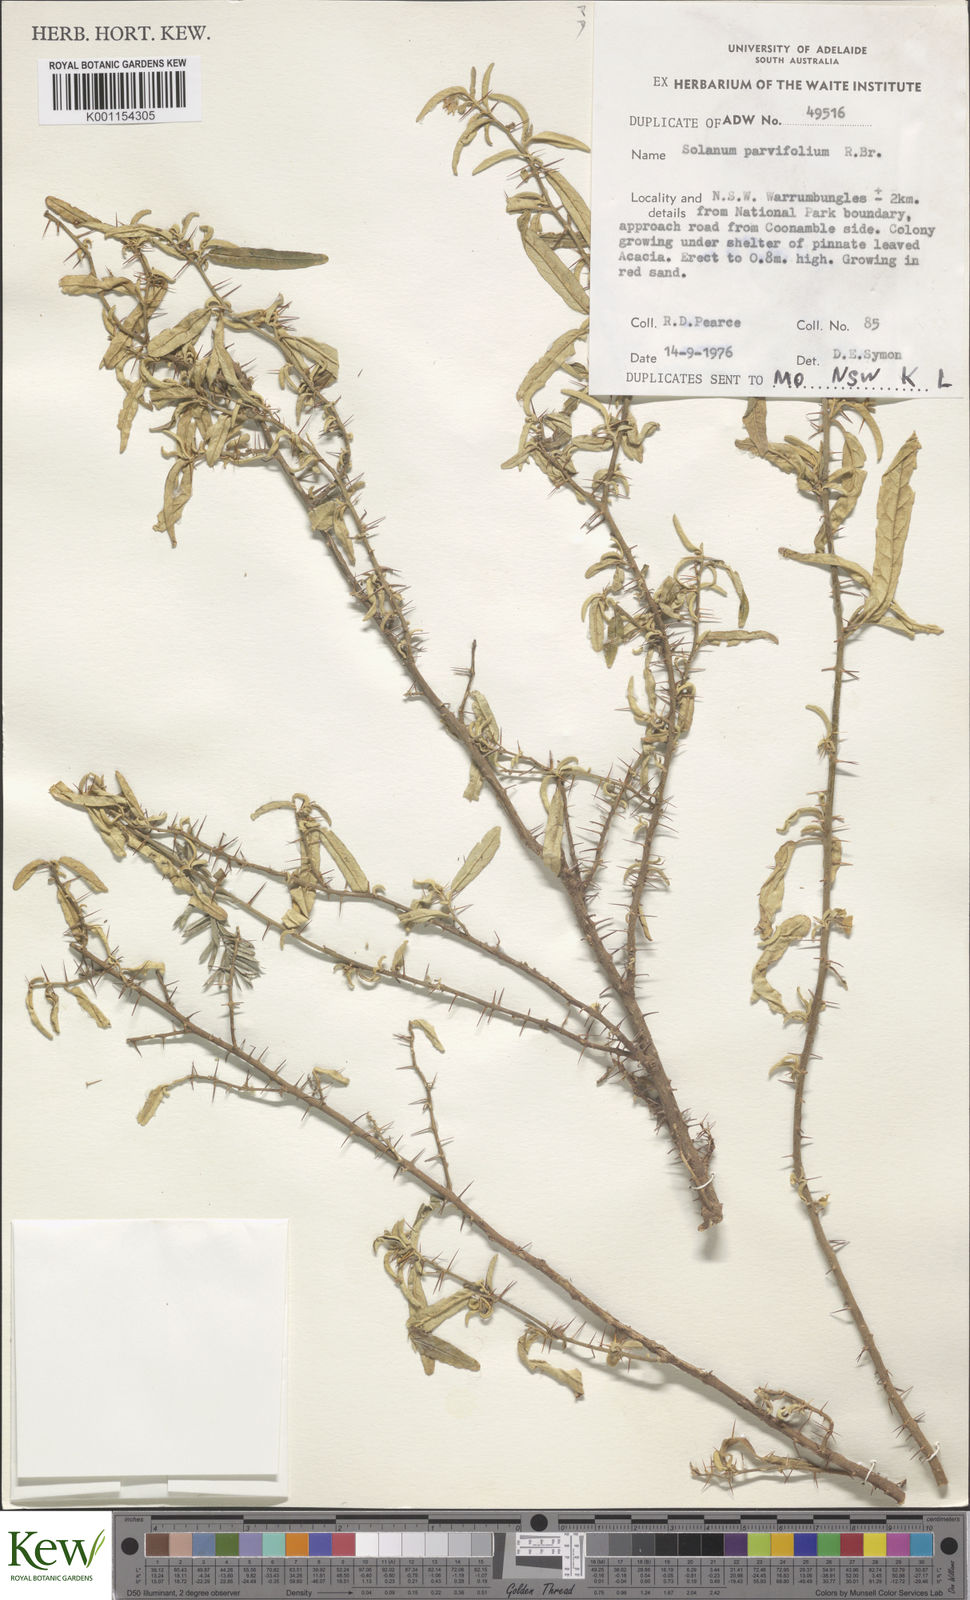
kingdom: Plantae
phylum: Tracheophyta
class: Magnoliopsida
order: Solanales
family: Solanaceae
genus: Solanum
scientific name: Solanum parvifolium
